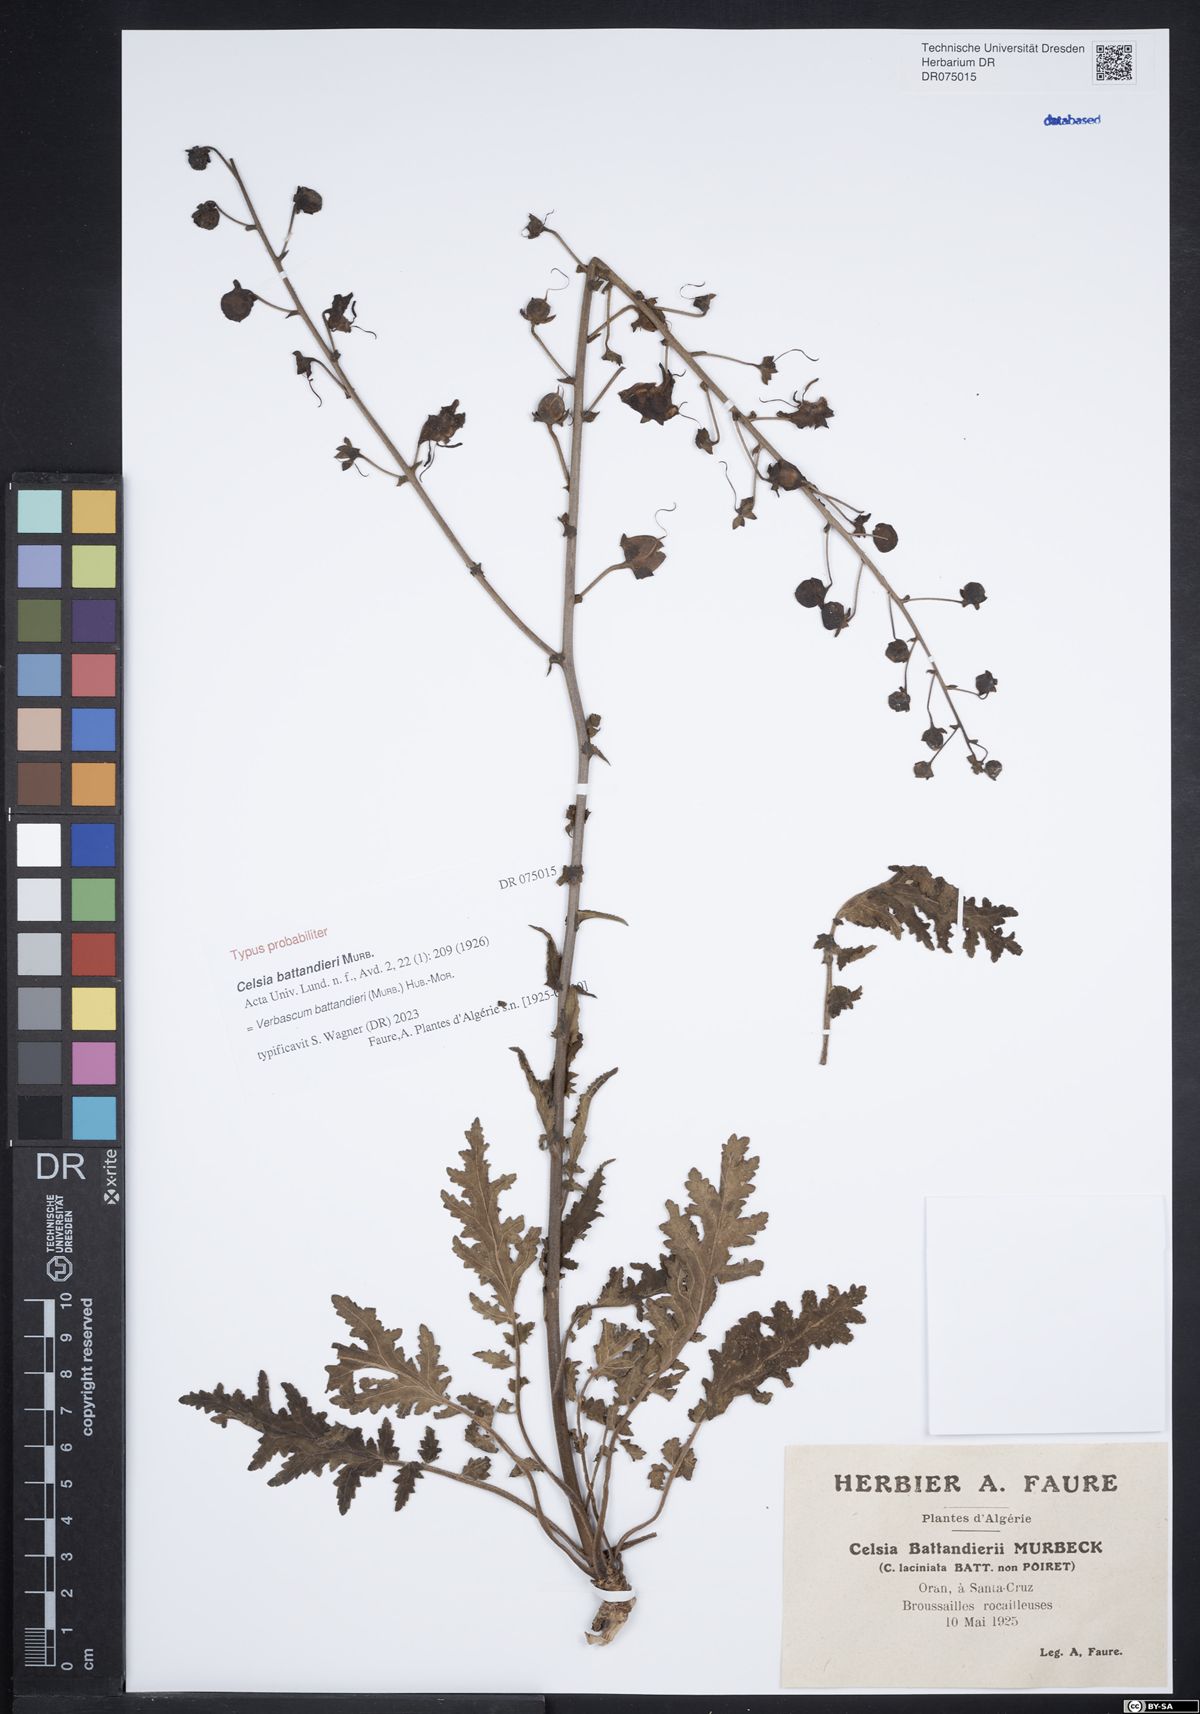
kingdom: Plantae
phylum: Tracheophyta
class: Magnoliopsida
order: Lamiales
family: Scrophulariaceae
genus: Verbascum
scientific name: Verbascum battandieri
